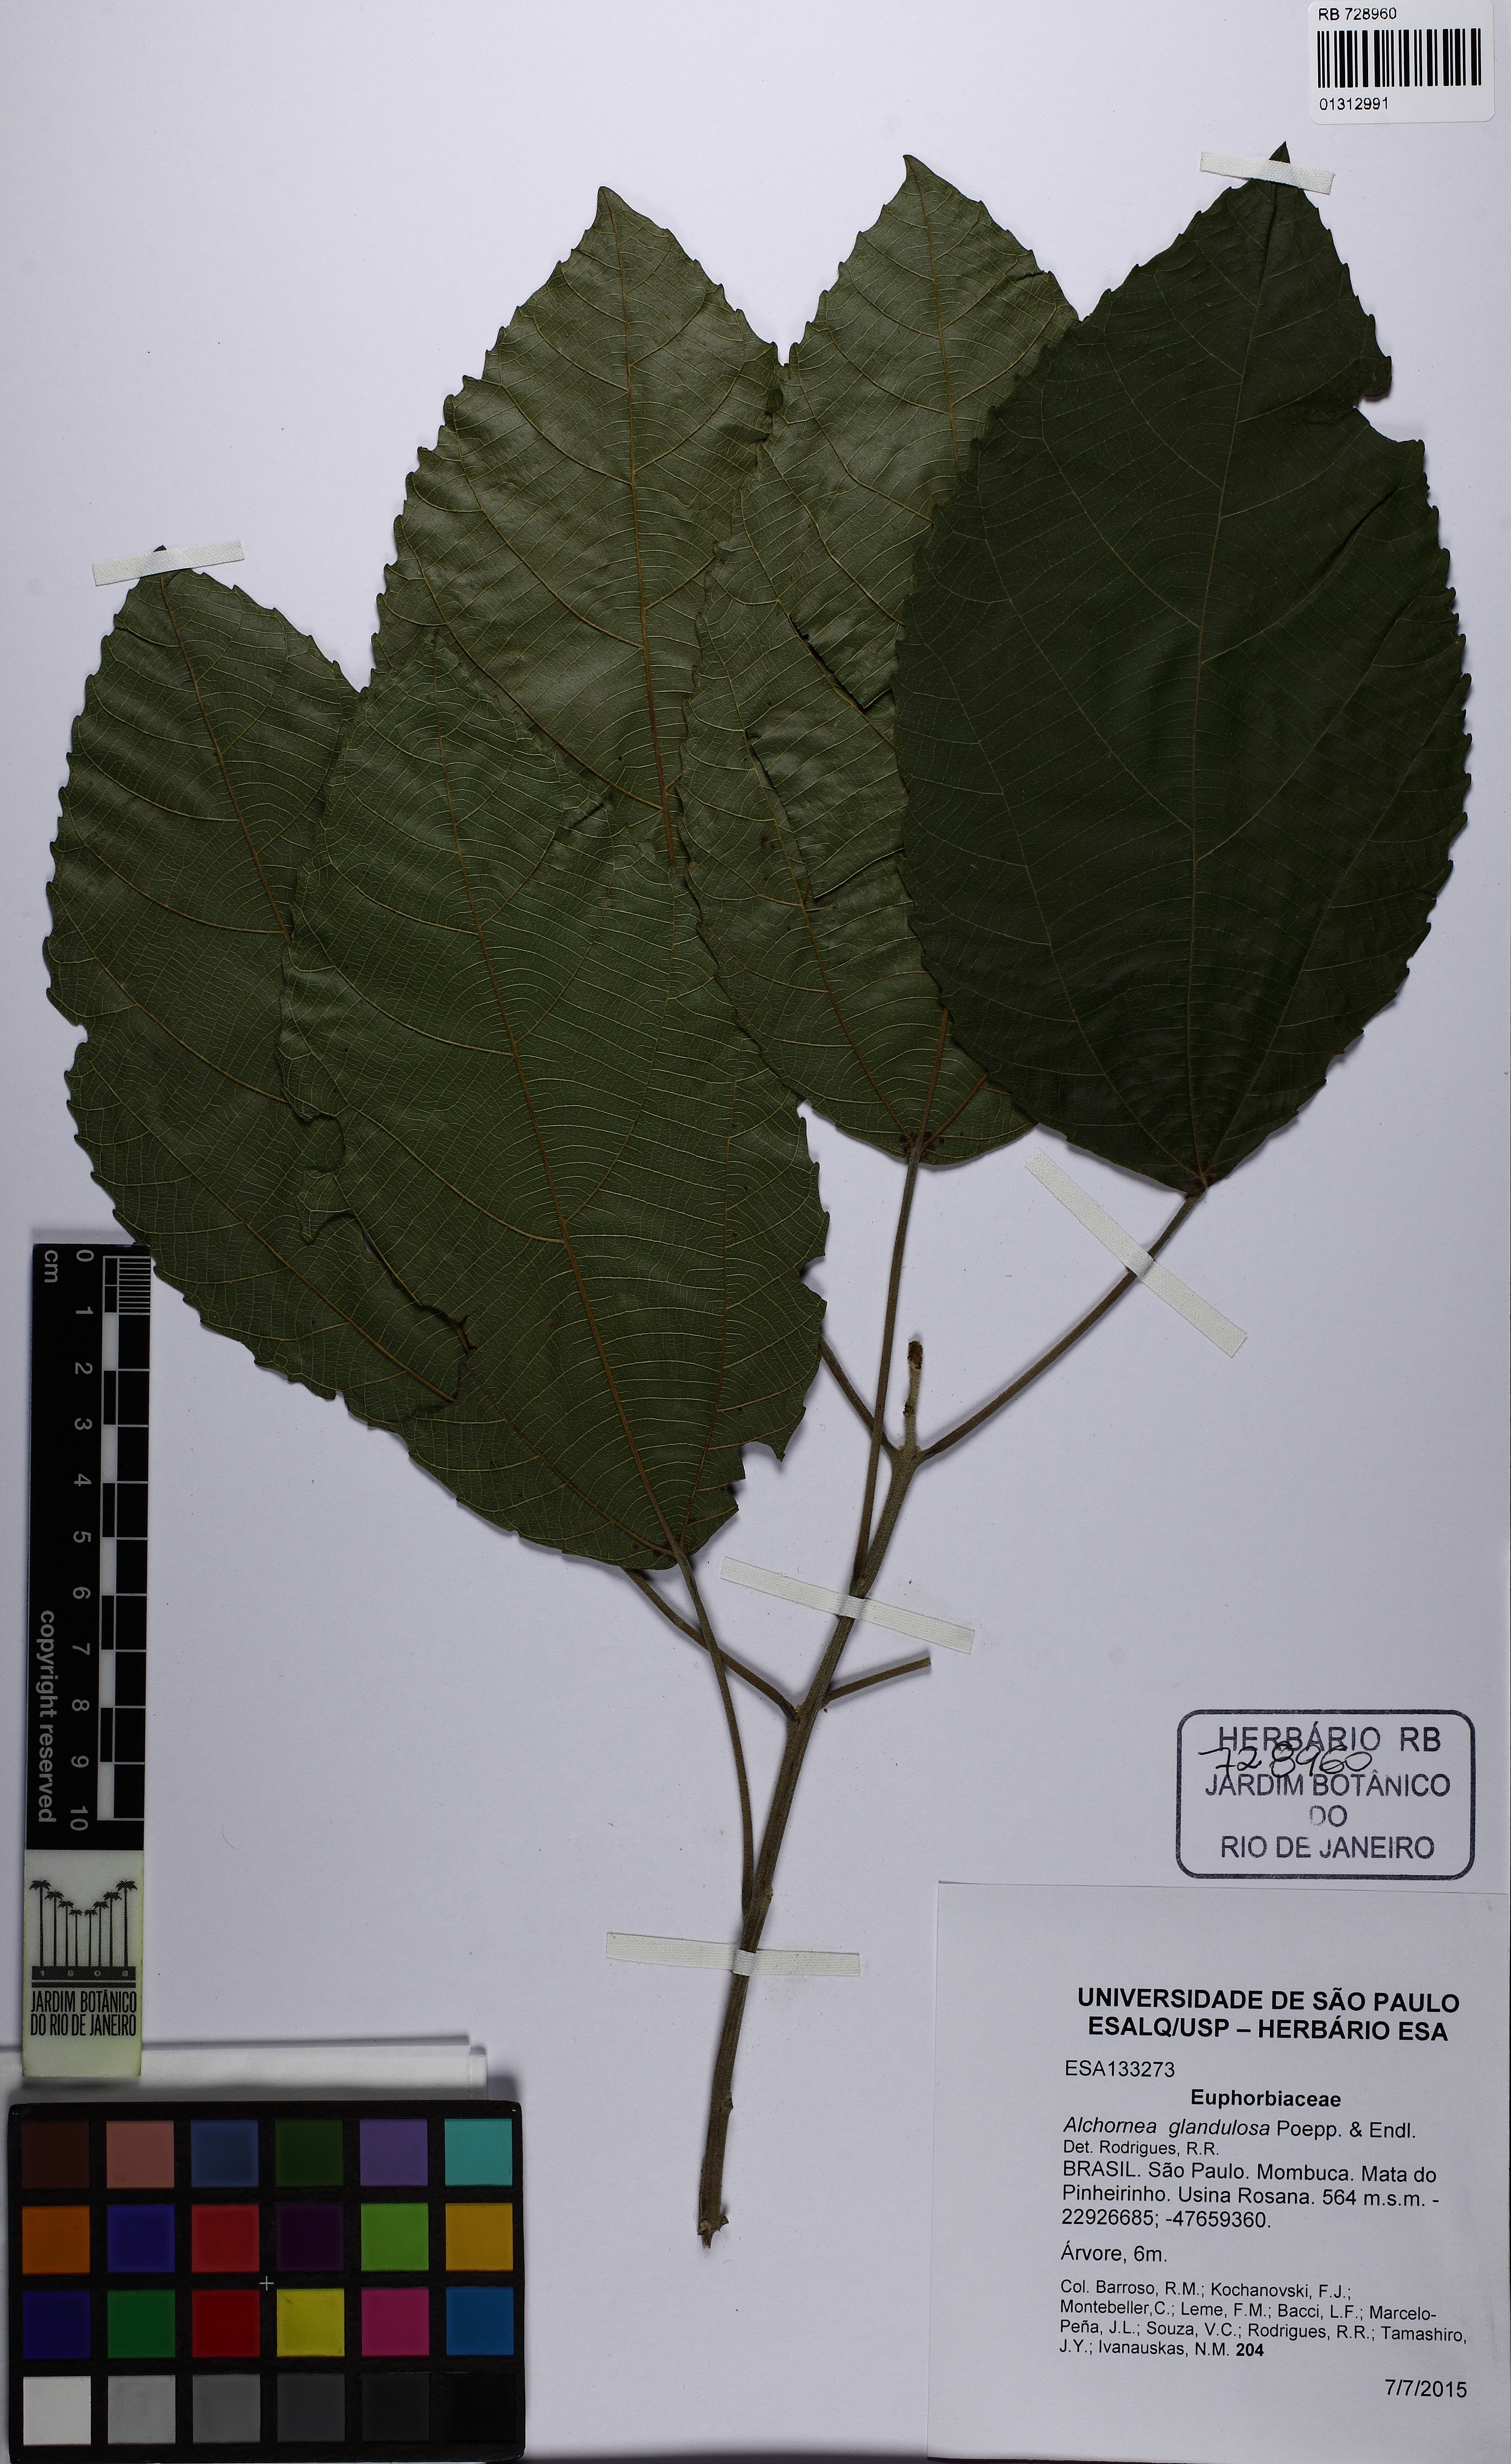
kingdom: Plantae
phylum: Tracheophyta
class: Magnoliopsida
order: Malpighiales
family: Euphorbiaceae
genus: Alchornea
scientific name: Alchornea glandulosa
